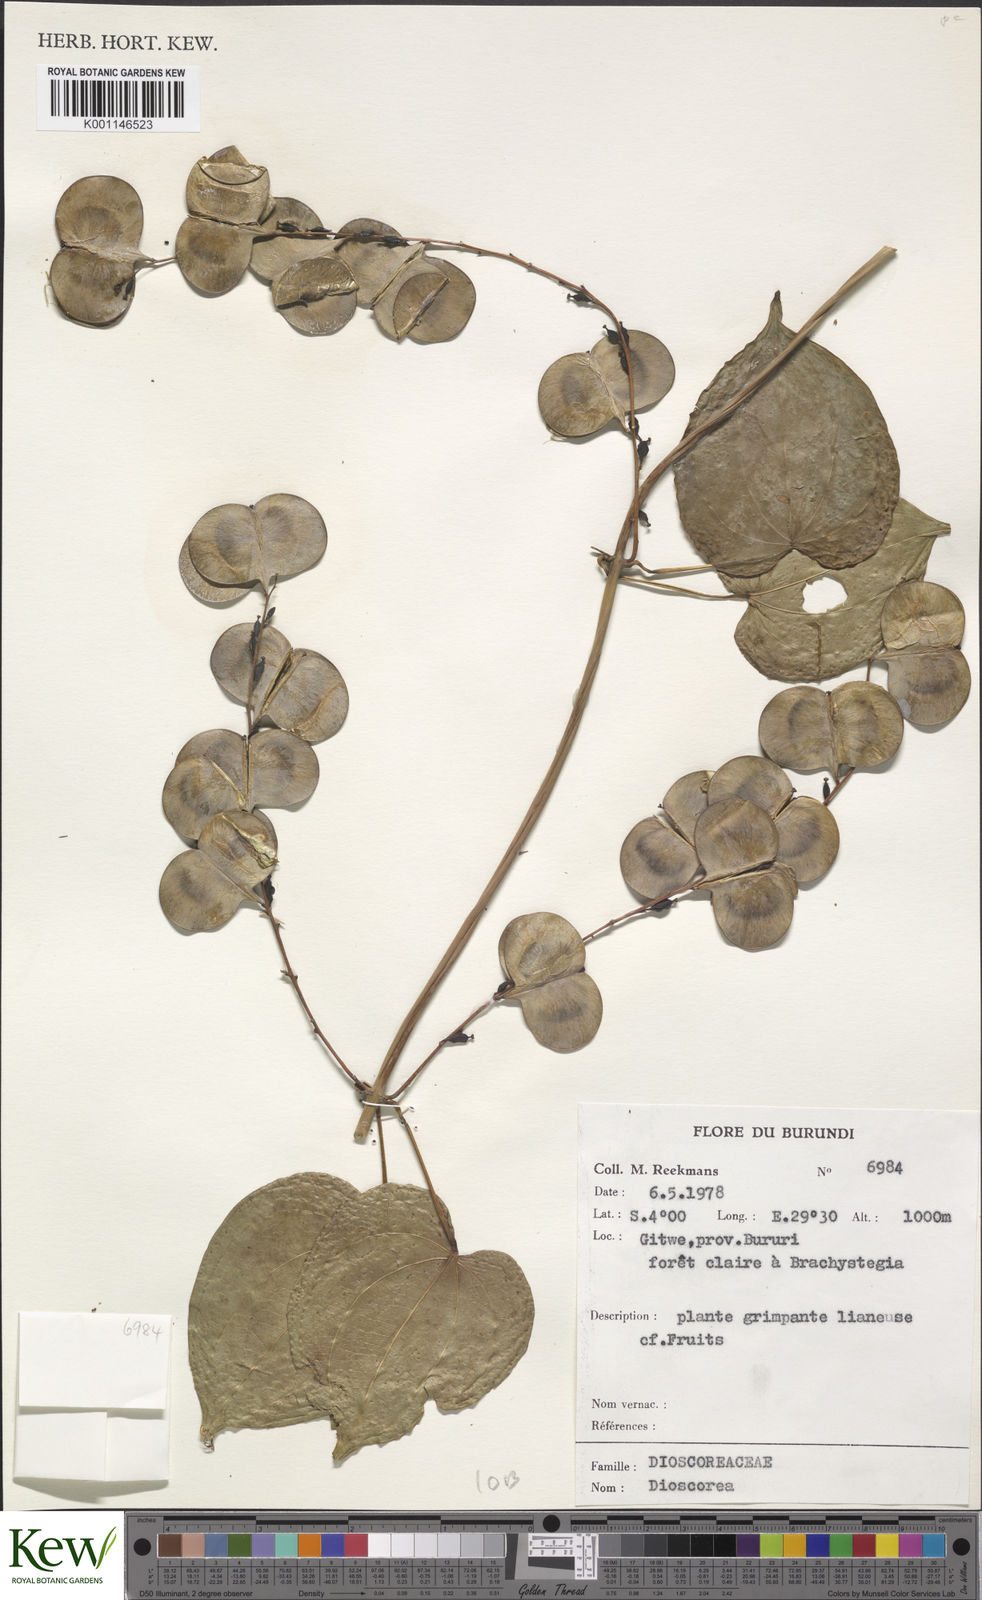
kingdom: Plantae
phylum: Tracheophyta
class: Liliopsida
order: Dioscoreales
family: Dioscoreaceae
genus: Dioscorea
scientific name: Dioscorea
